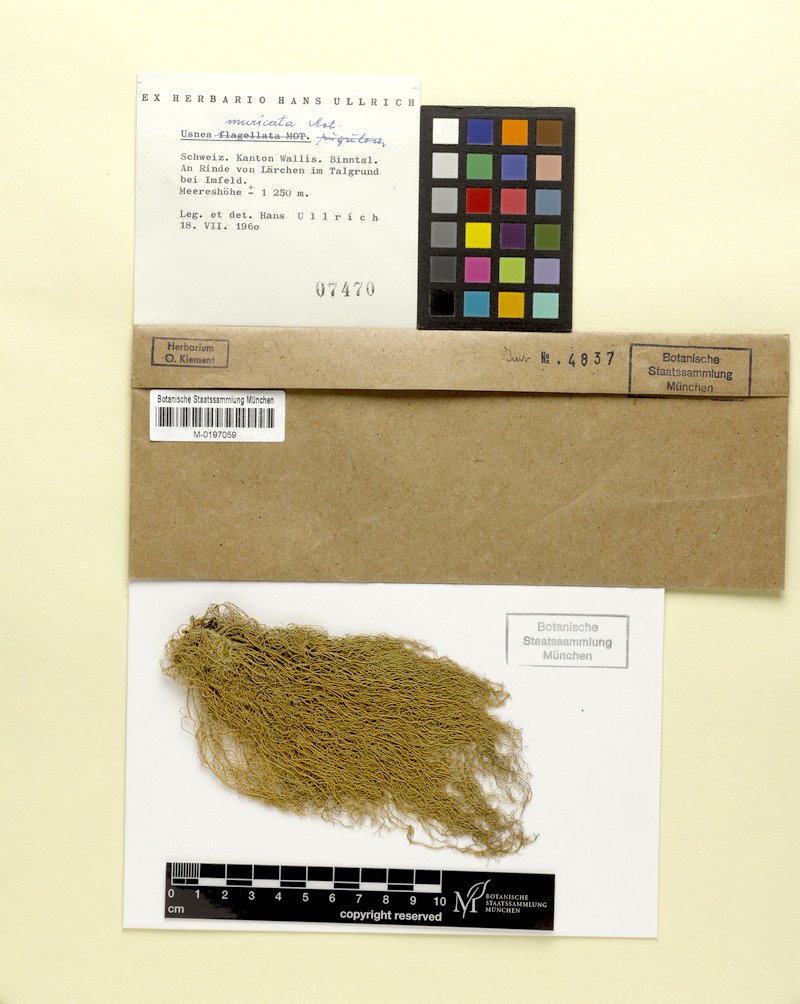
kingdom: Fungi
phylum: Ascomycota
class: Lecanoromycetes
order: Lecanorales
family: Parmeliaceae
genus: Usnea
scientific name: Usnea filipendula
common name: Fishbone beard lichen
